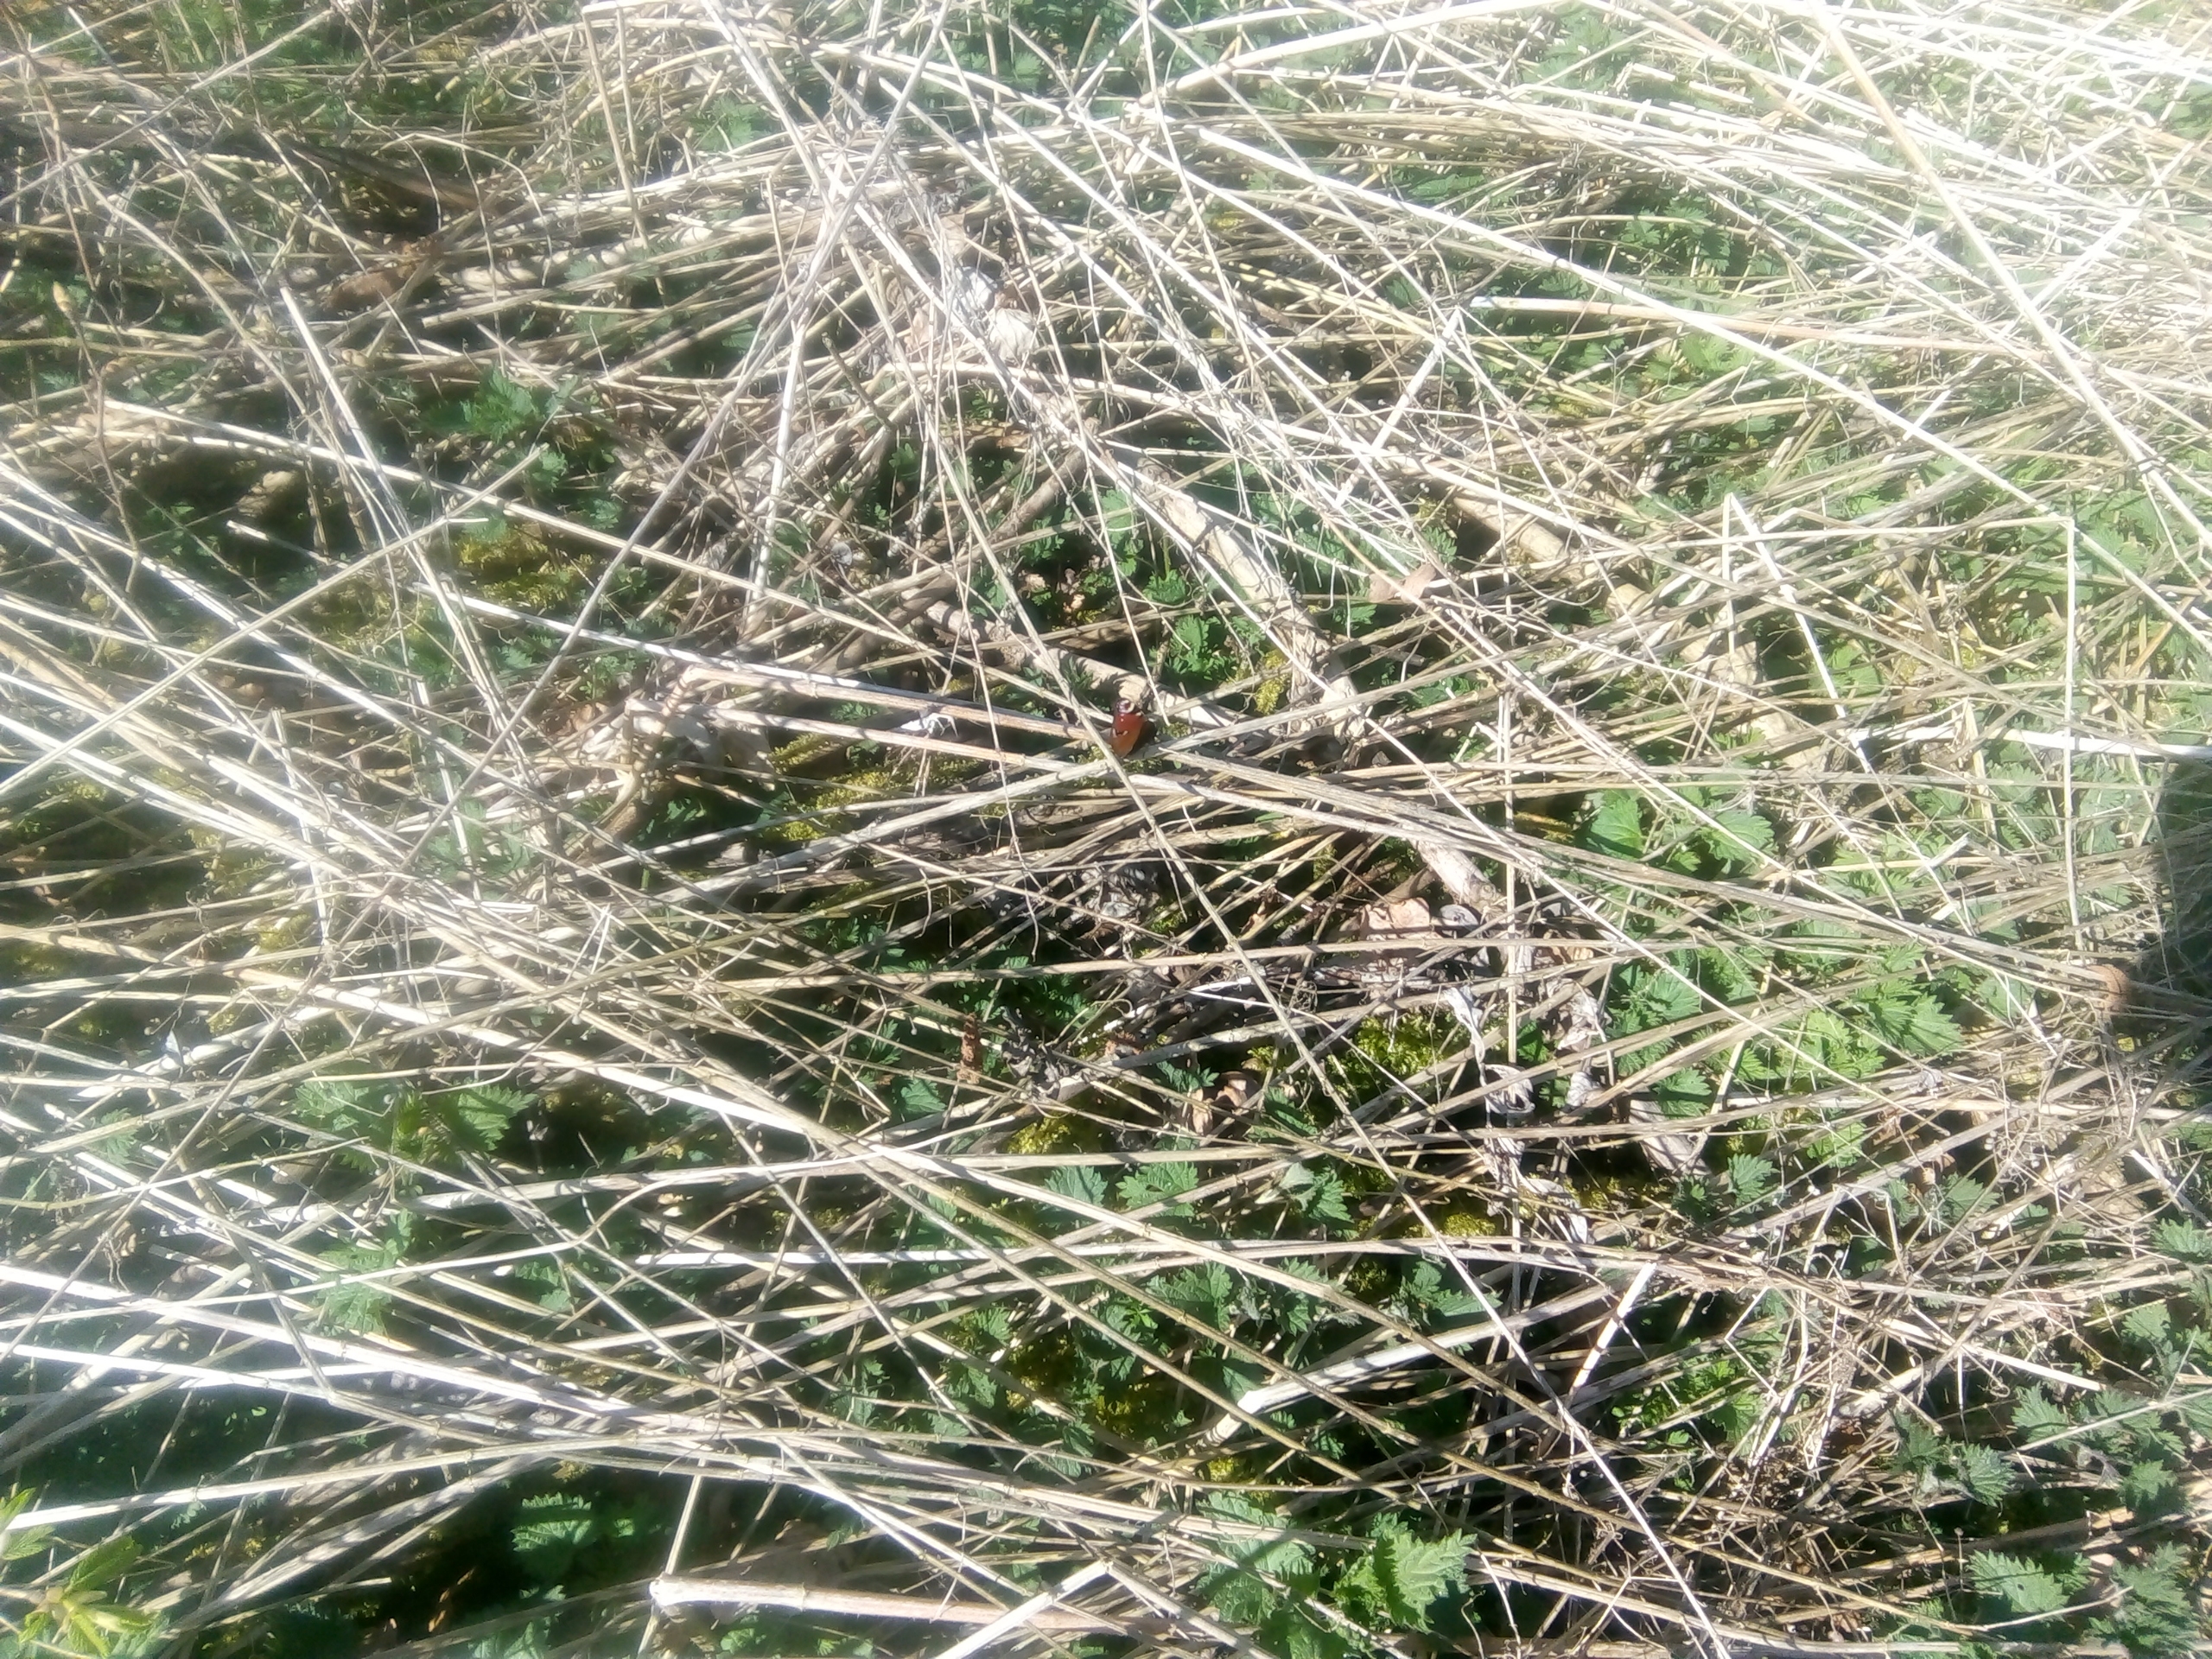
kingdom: Animalia
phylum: Arthropoda
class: Insecta
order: Lepidoptera
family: Nymphalidae
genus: Aglais
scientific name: Aglais io
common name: Dagpåfugleøje
